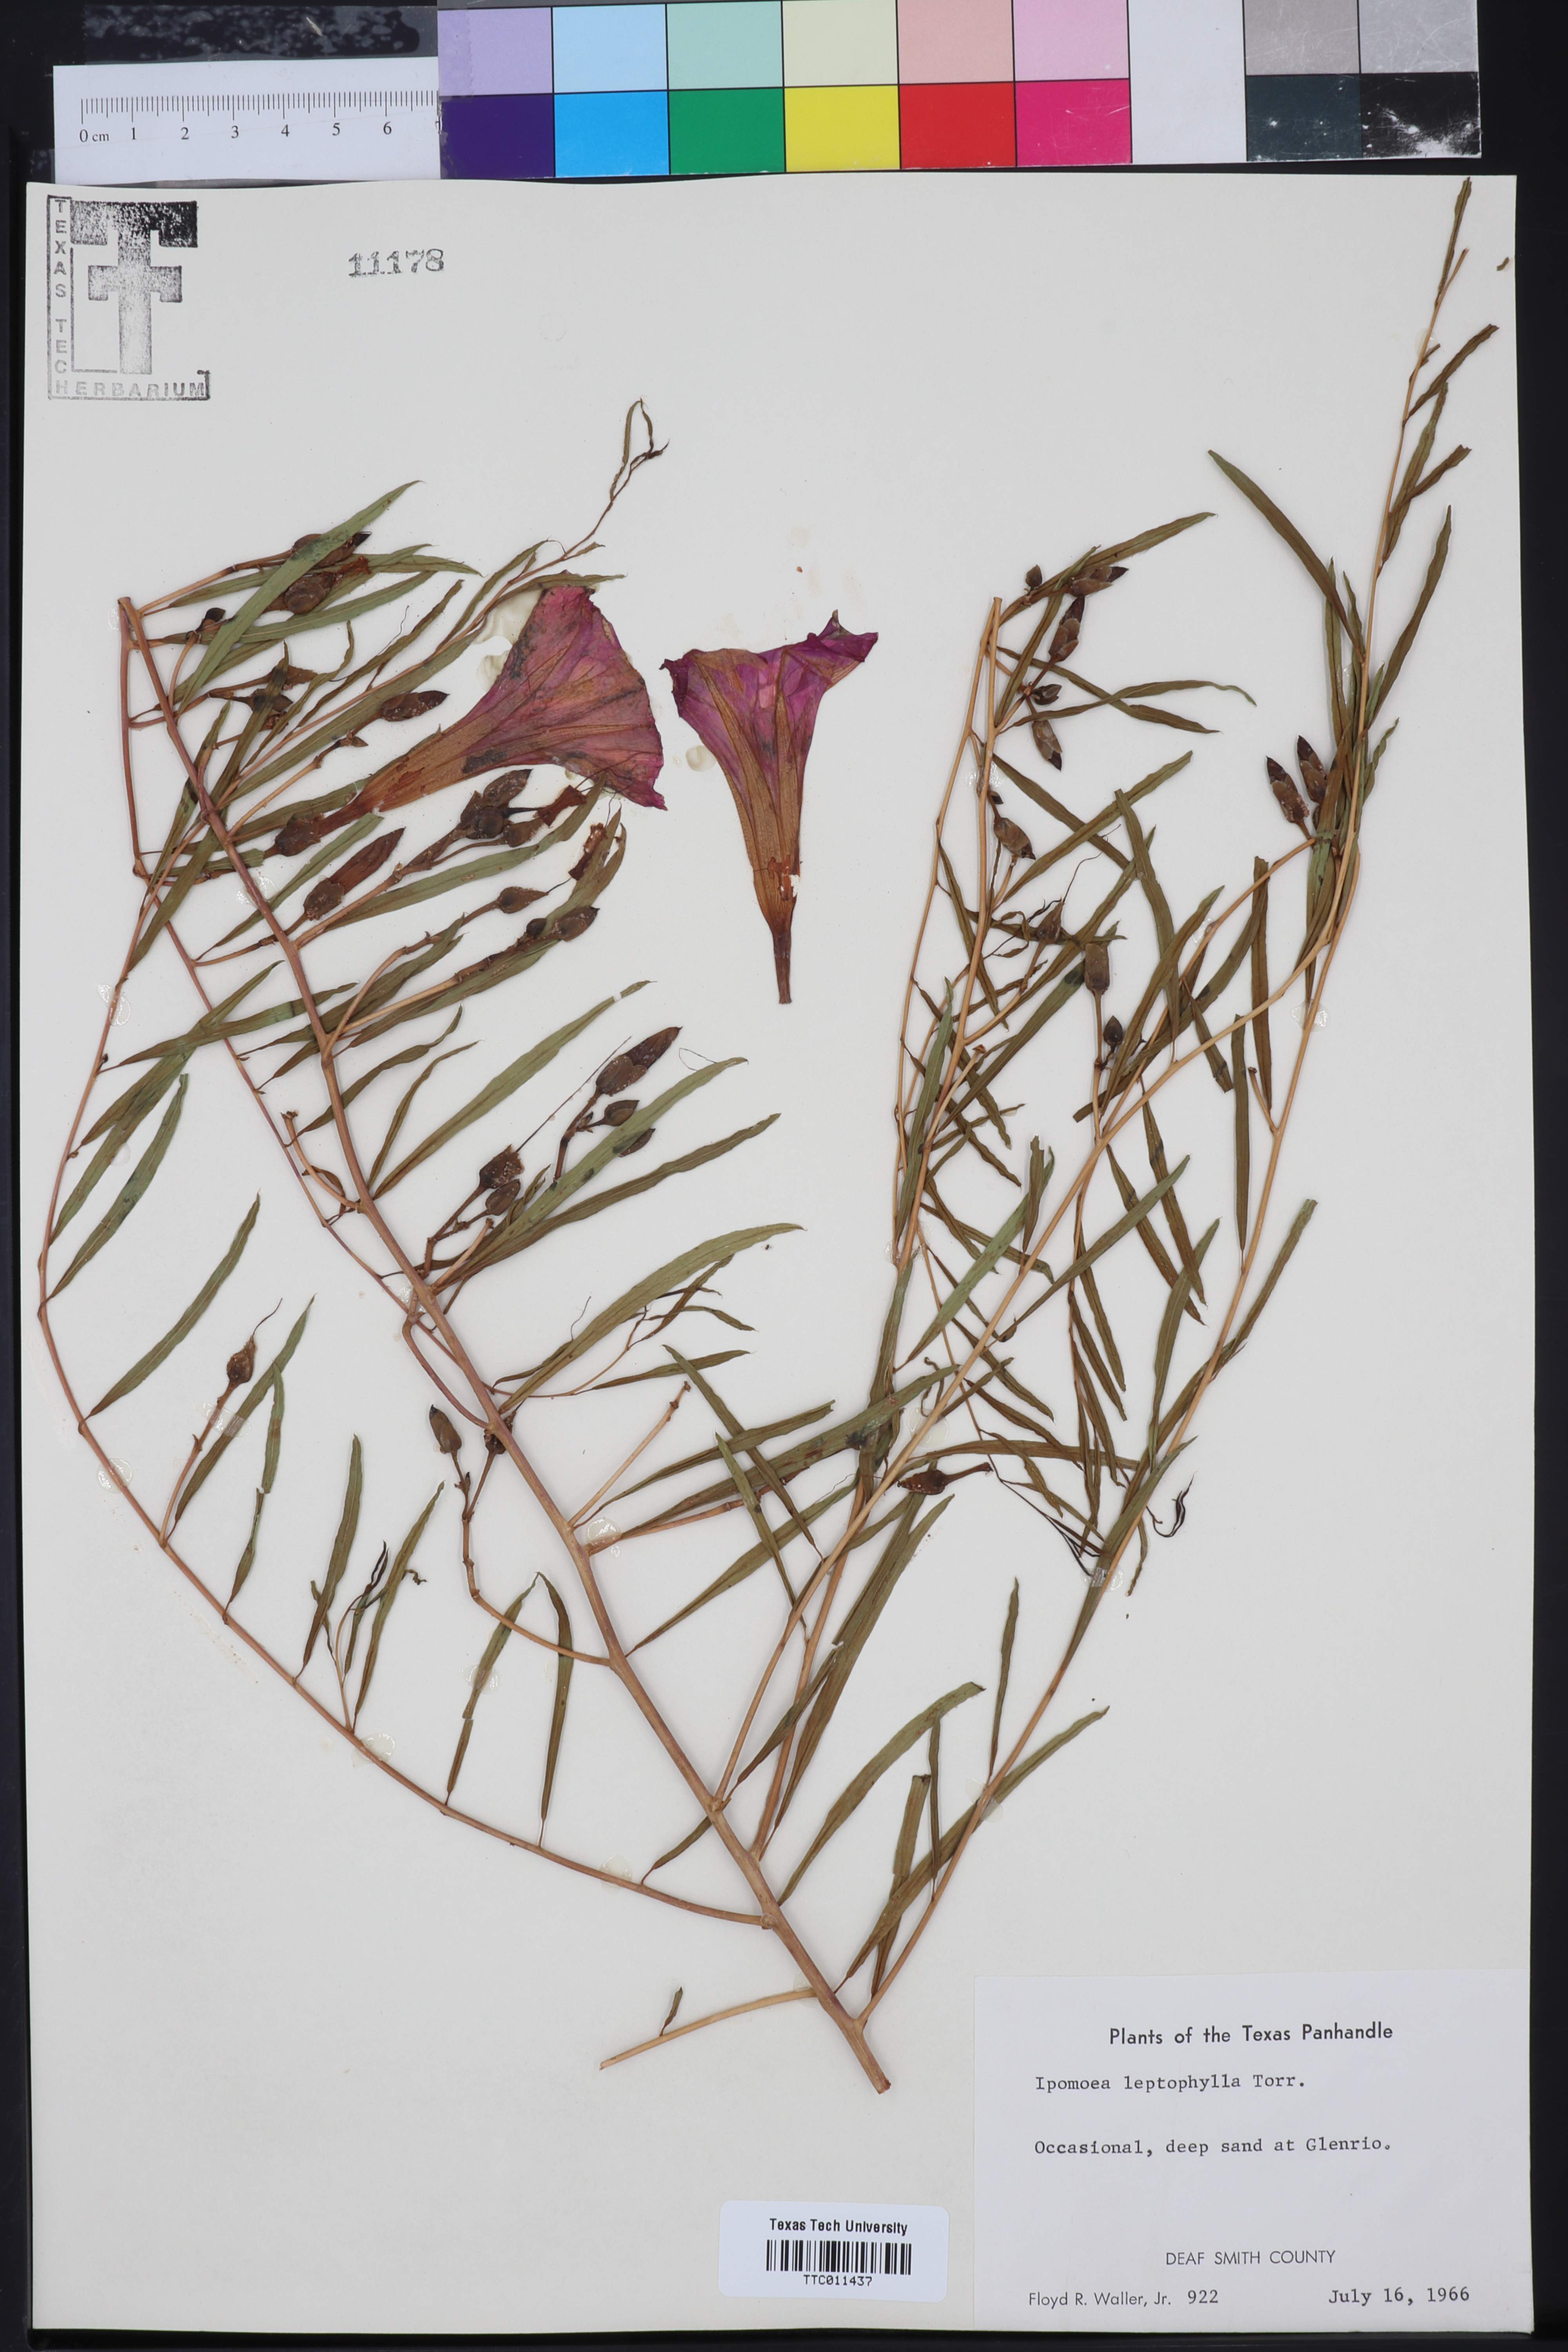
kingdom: Plantae
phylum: Tracheophyta
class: Magnoliopsida
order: Solanales
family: Convolvulaceae
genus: Ipomoea
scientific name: Ipomoea leptophylla
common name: Bush moonflower
